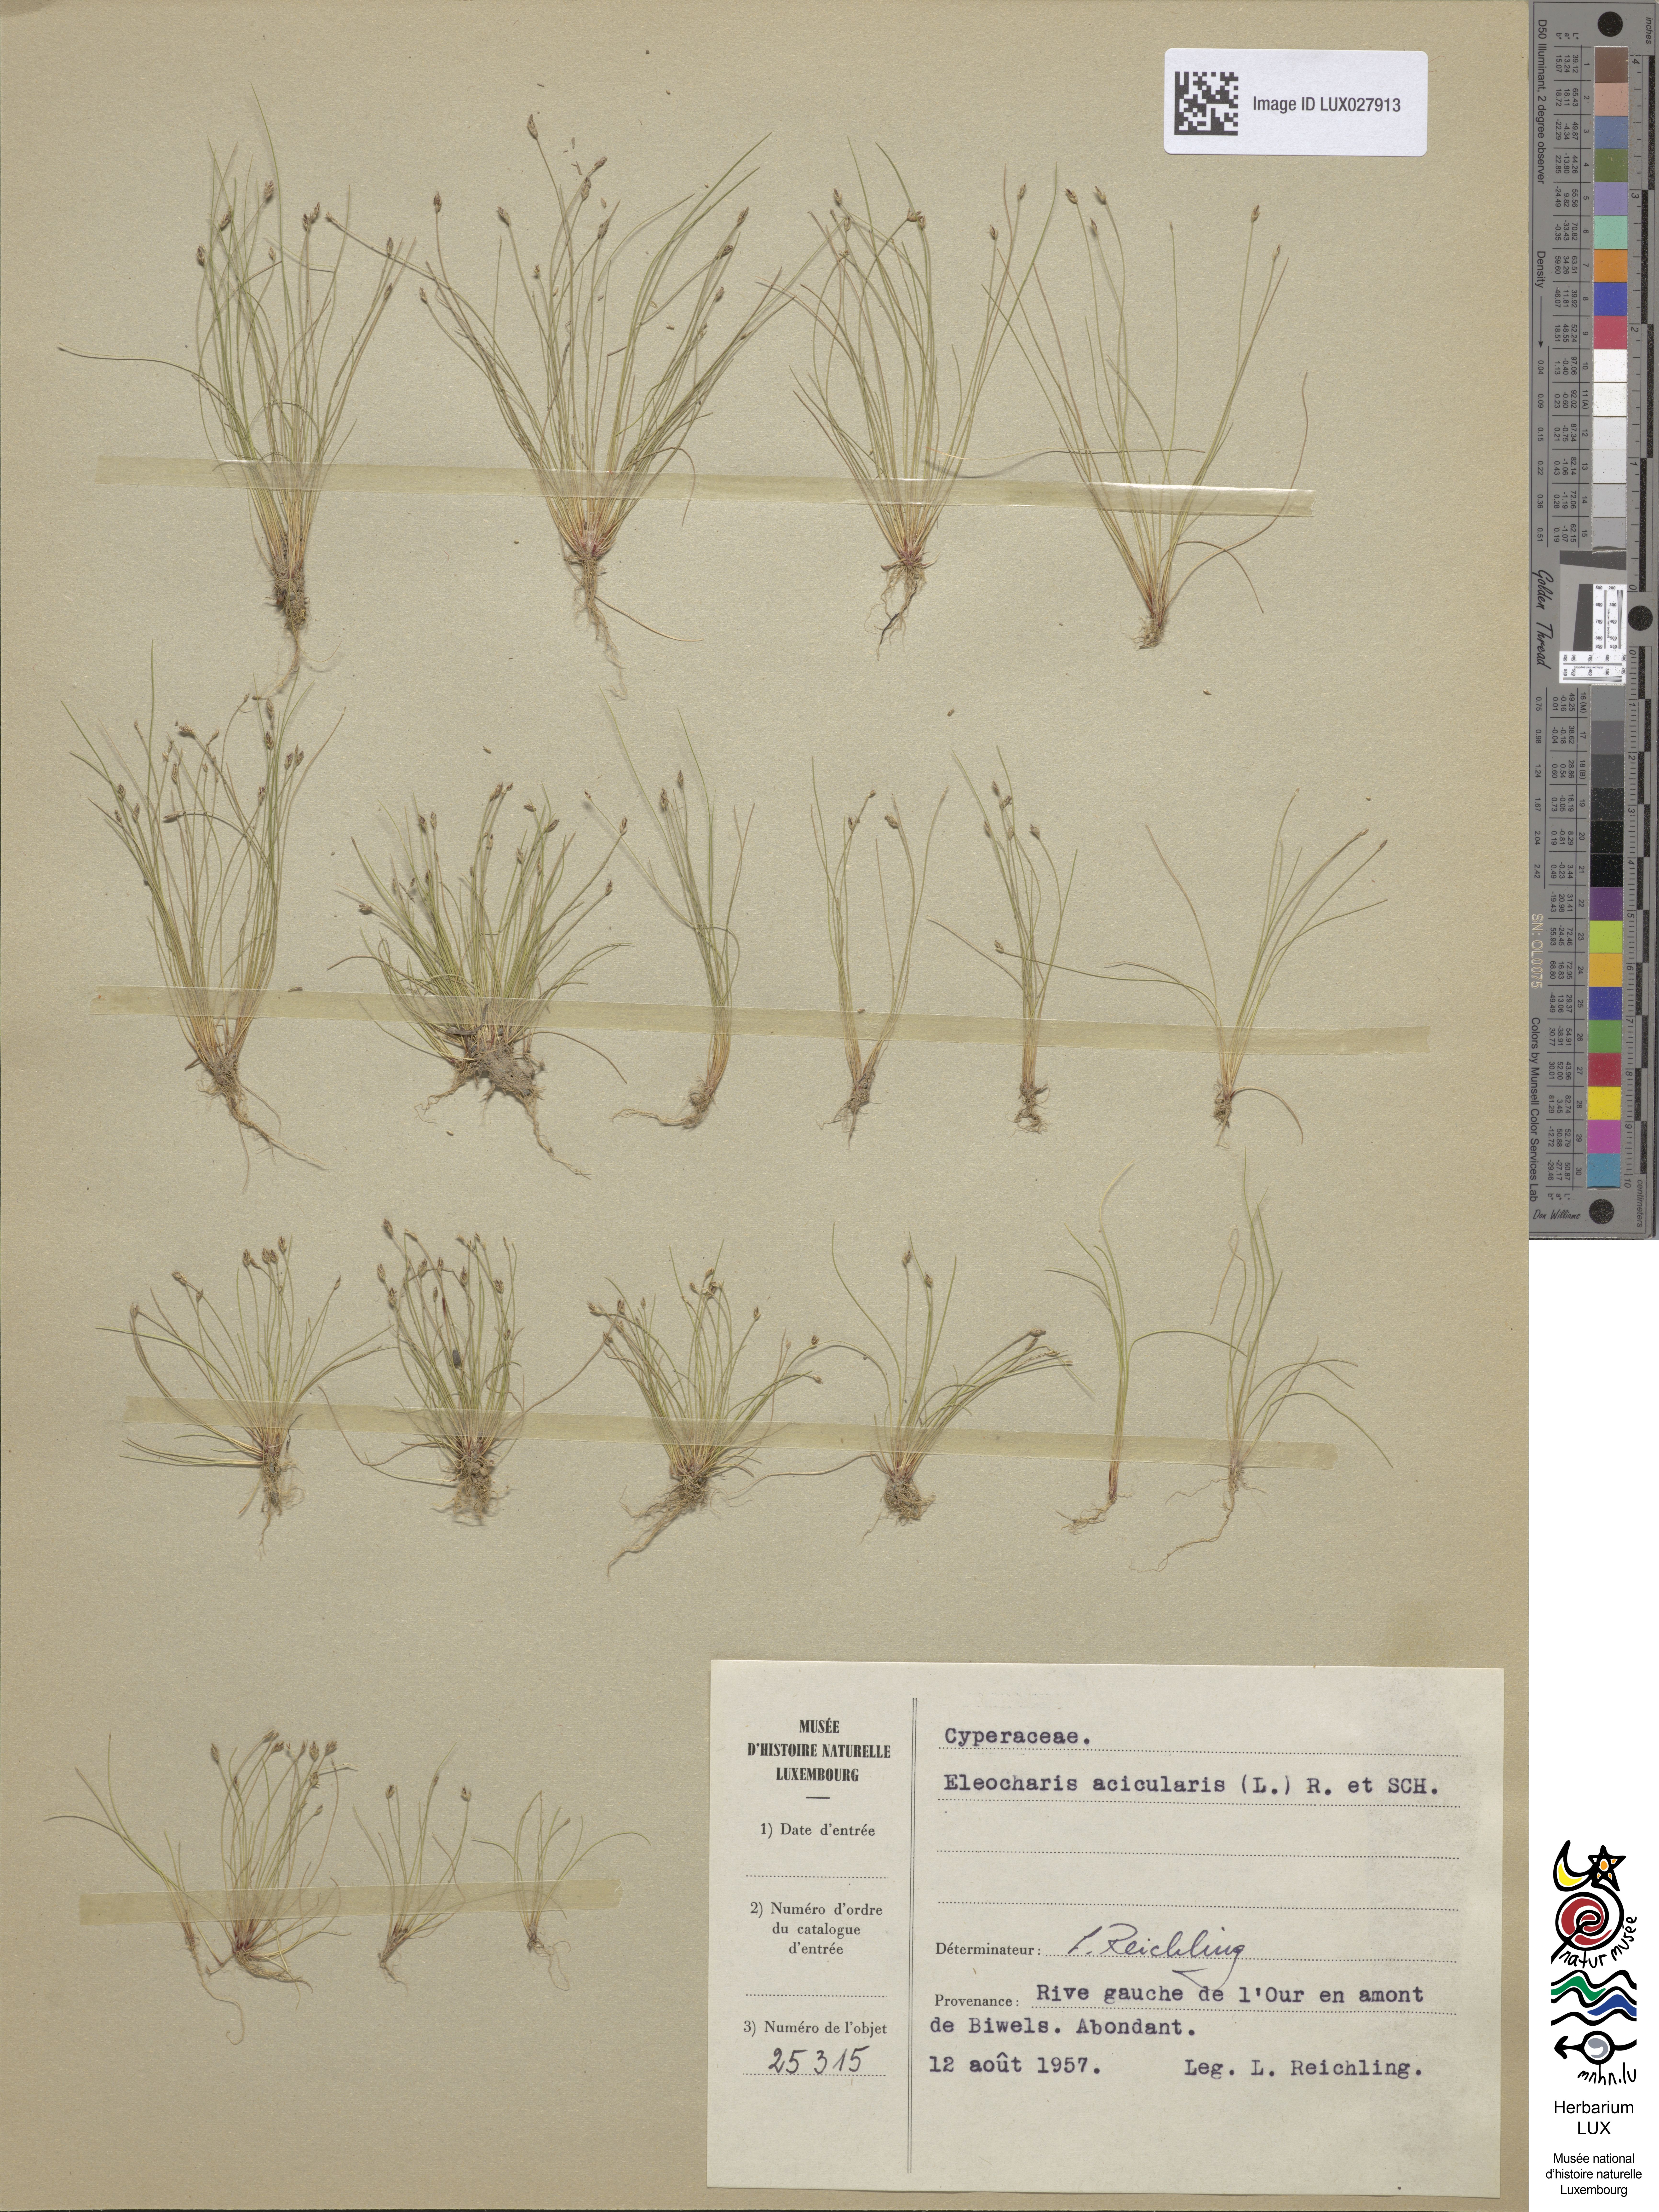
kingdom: Plantae
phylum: Tracheophyta
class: Liliopsida
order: Poales
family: Cyperaceae
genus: Eleocharis
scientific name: Eleocharis acicularis
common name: Needle spike-rush
